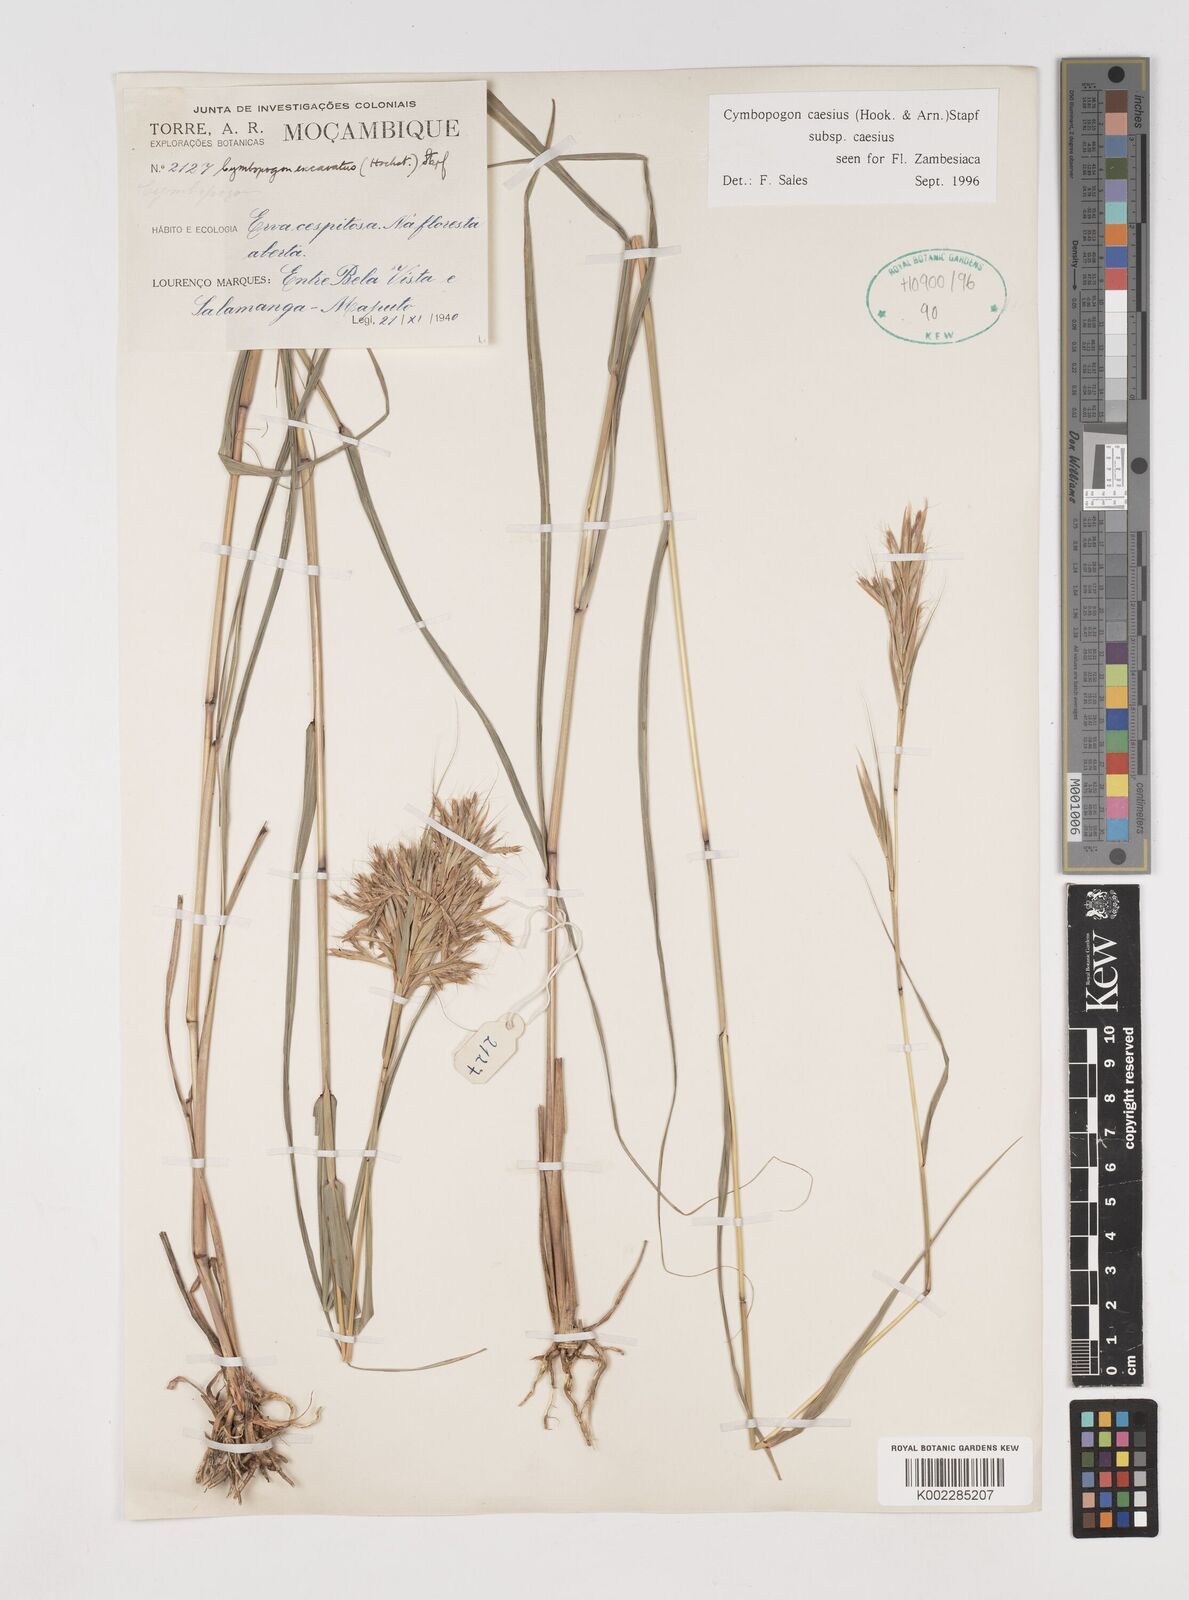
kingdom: Plantae
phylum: Tracheophyta
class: Liliopsida
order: Poales
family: Poaceae
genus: Cymbopogon
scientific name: Cymbopogon caesius
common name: Kachi grass
